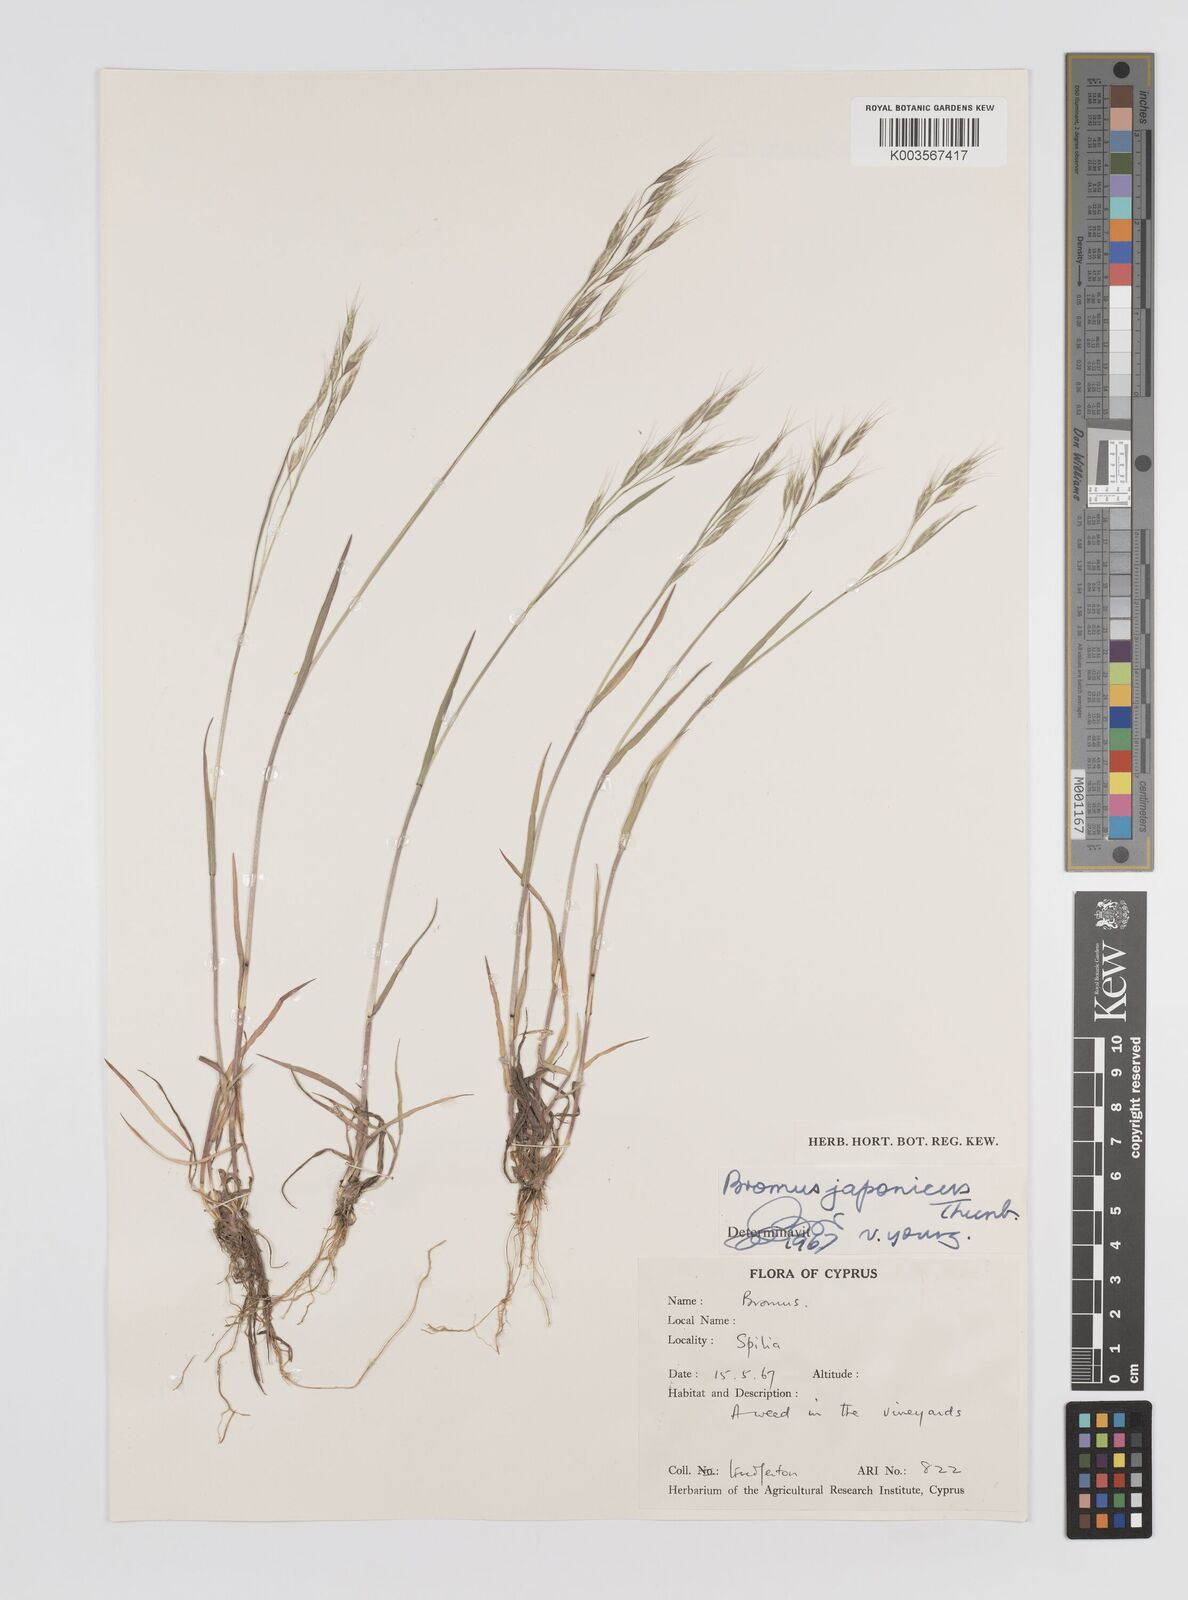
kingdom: Plantae
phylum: Tracheophyta
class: Liliopsida
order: Poales
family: Poaceae
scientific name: Poaceae
